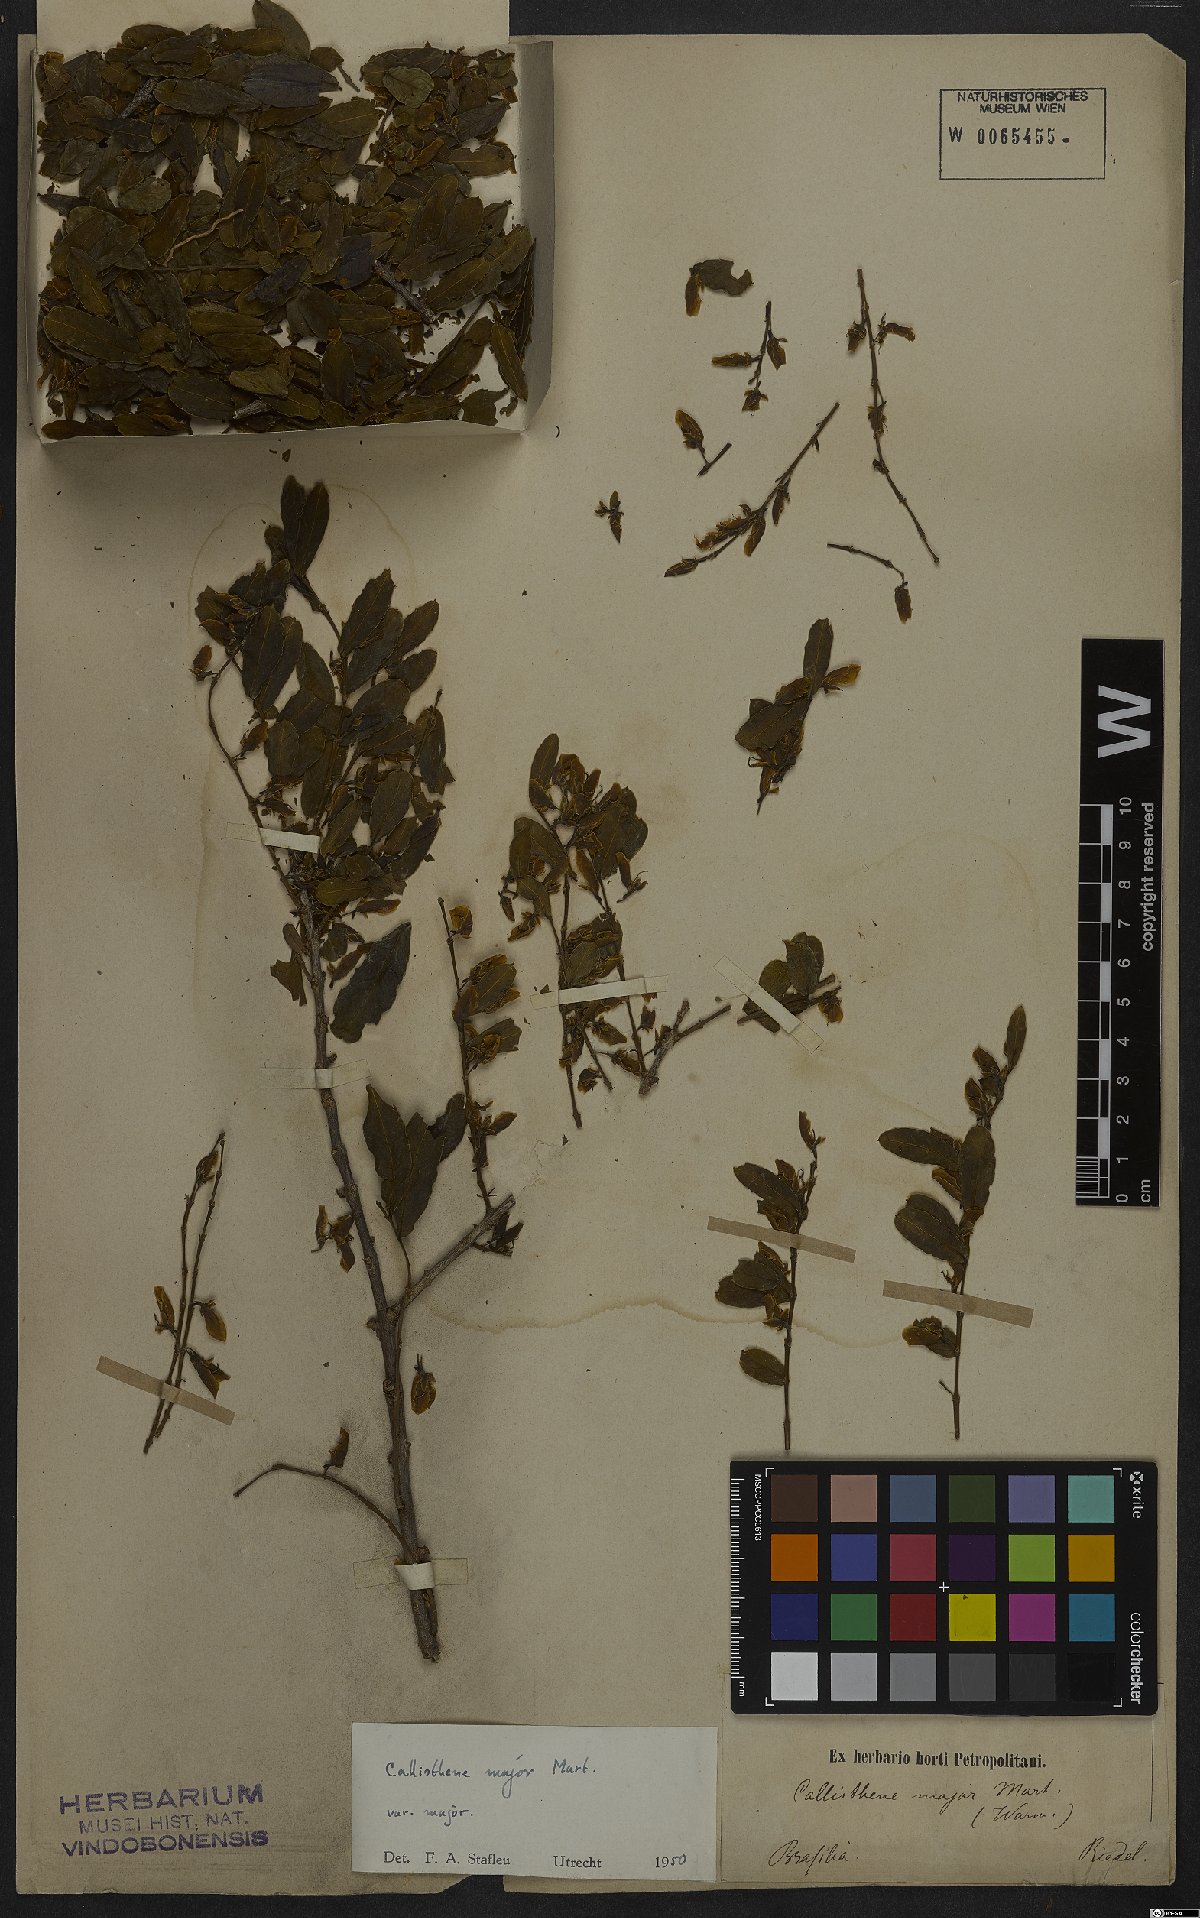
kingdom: Plantae
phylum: Tracheophyta
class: Magnoliopsida
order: Myrtales
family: Vochysiaceae
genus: Callisthene
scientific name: Callisthene major
